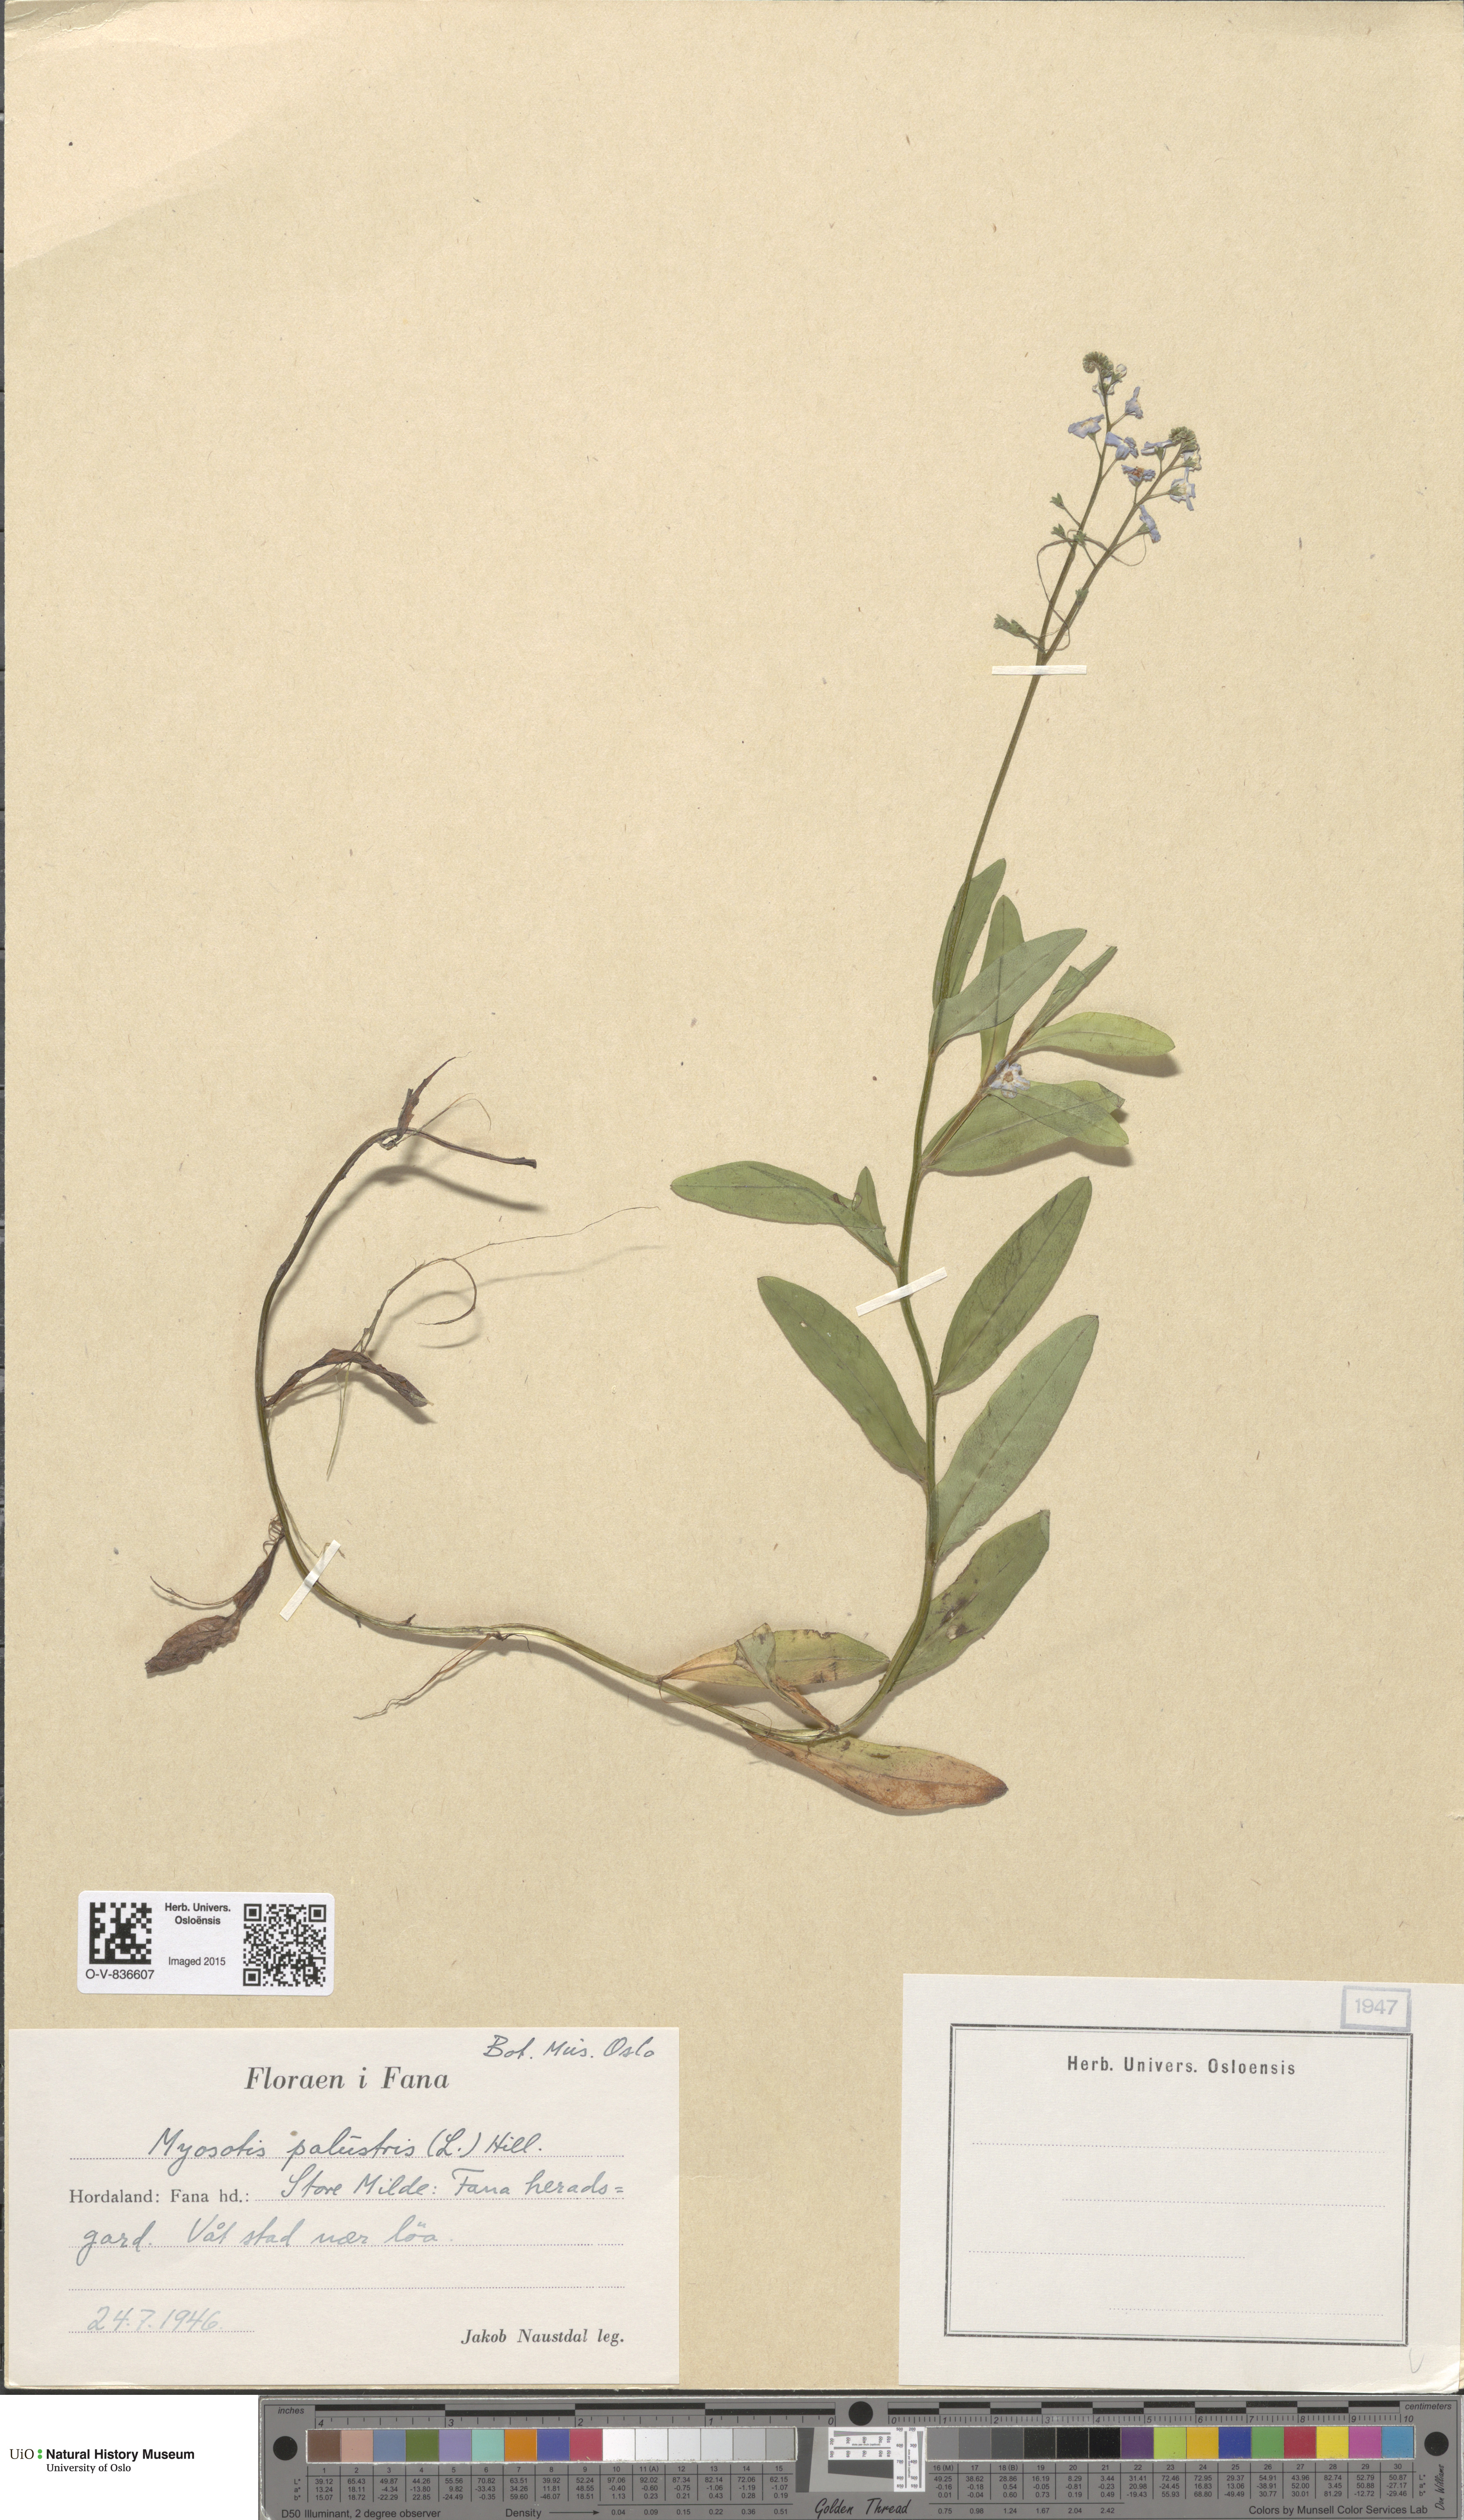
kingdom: Plantae
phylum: Tracheophyta
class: Magnoliopsida
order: Boraginales
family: Boraginaceae
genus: Myosotis
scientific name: Myosotis scorpioides
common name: Water forget-me-not
